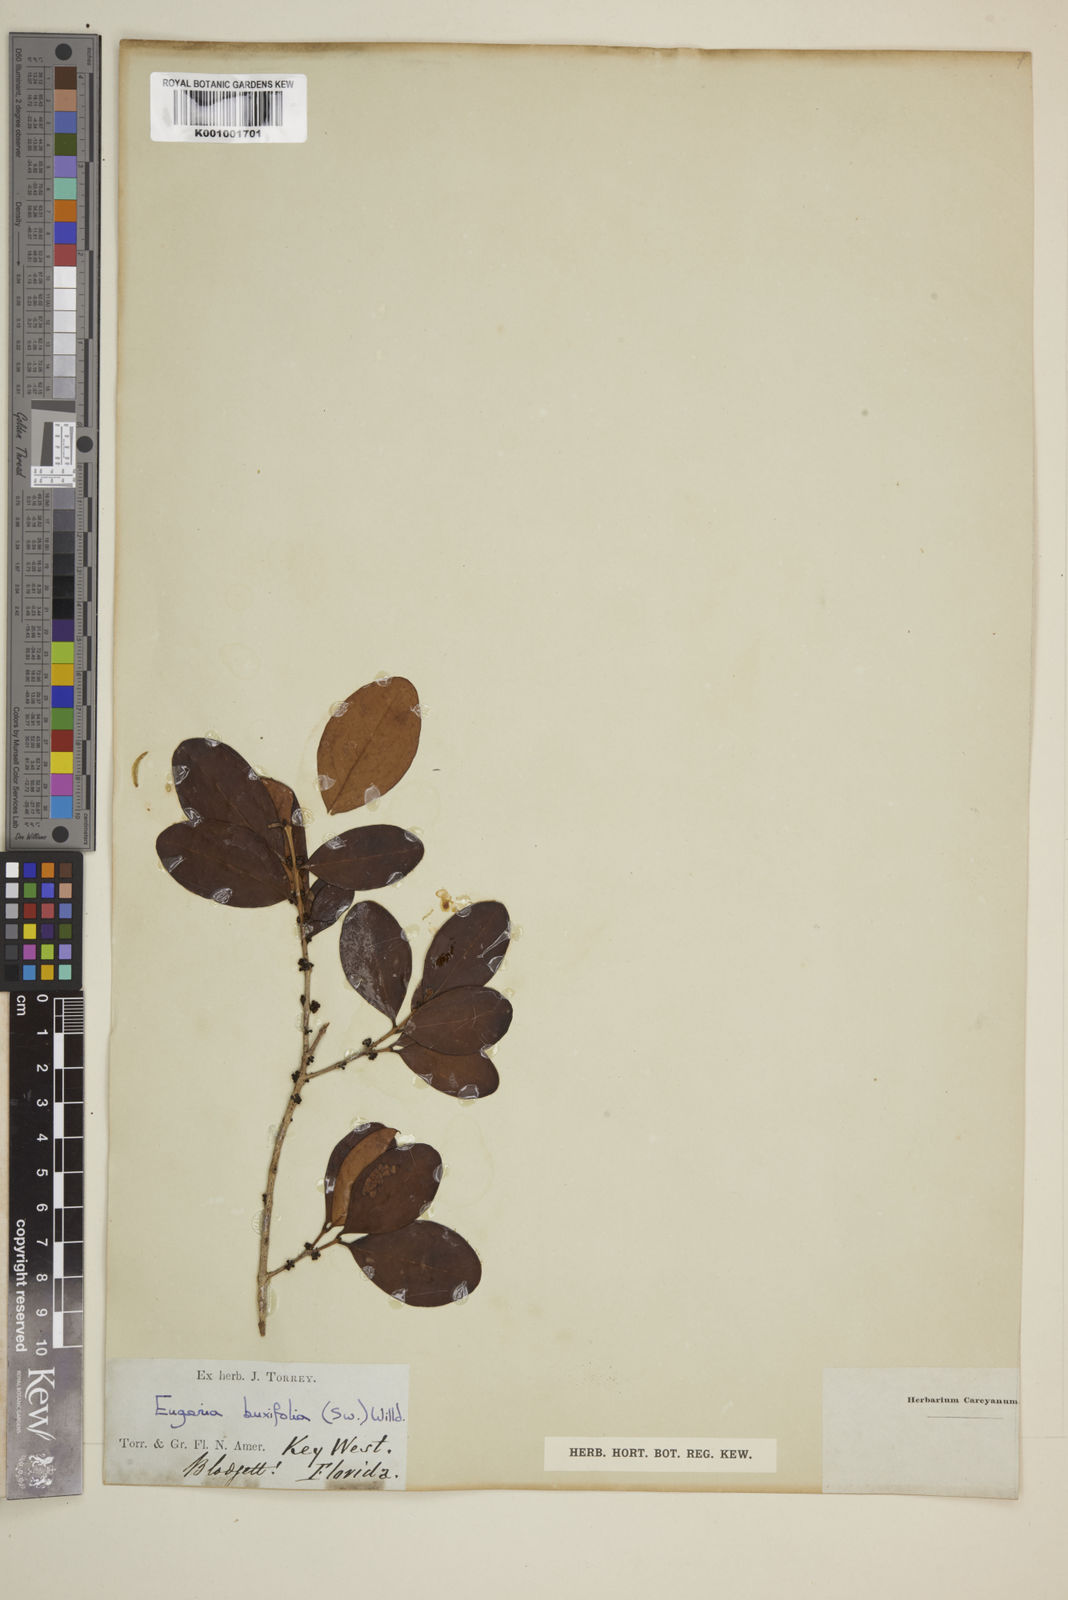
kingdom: Plantae
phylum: Tracheophyta
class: Magnoliopsida
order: Myrtales
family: Myrtaceae
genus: Eugenia
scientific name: Eugenia buxifolia
